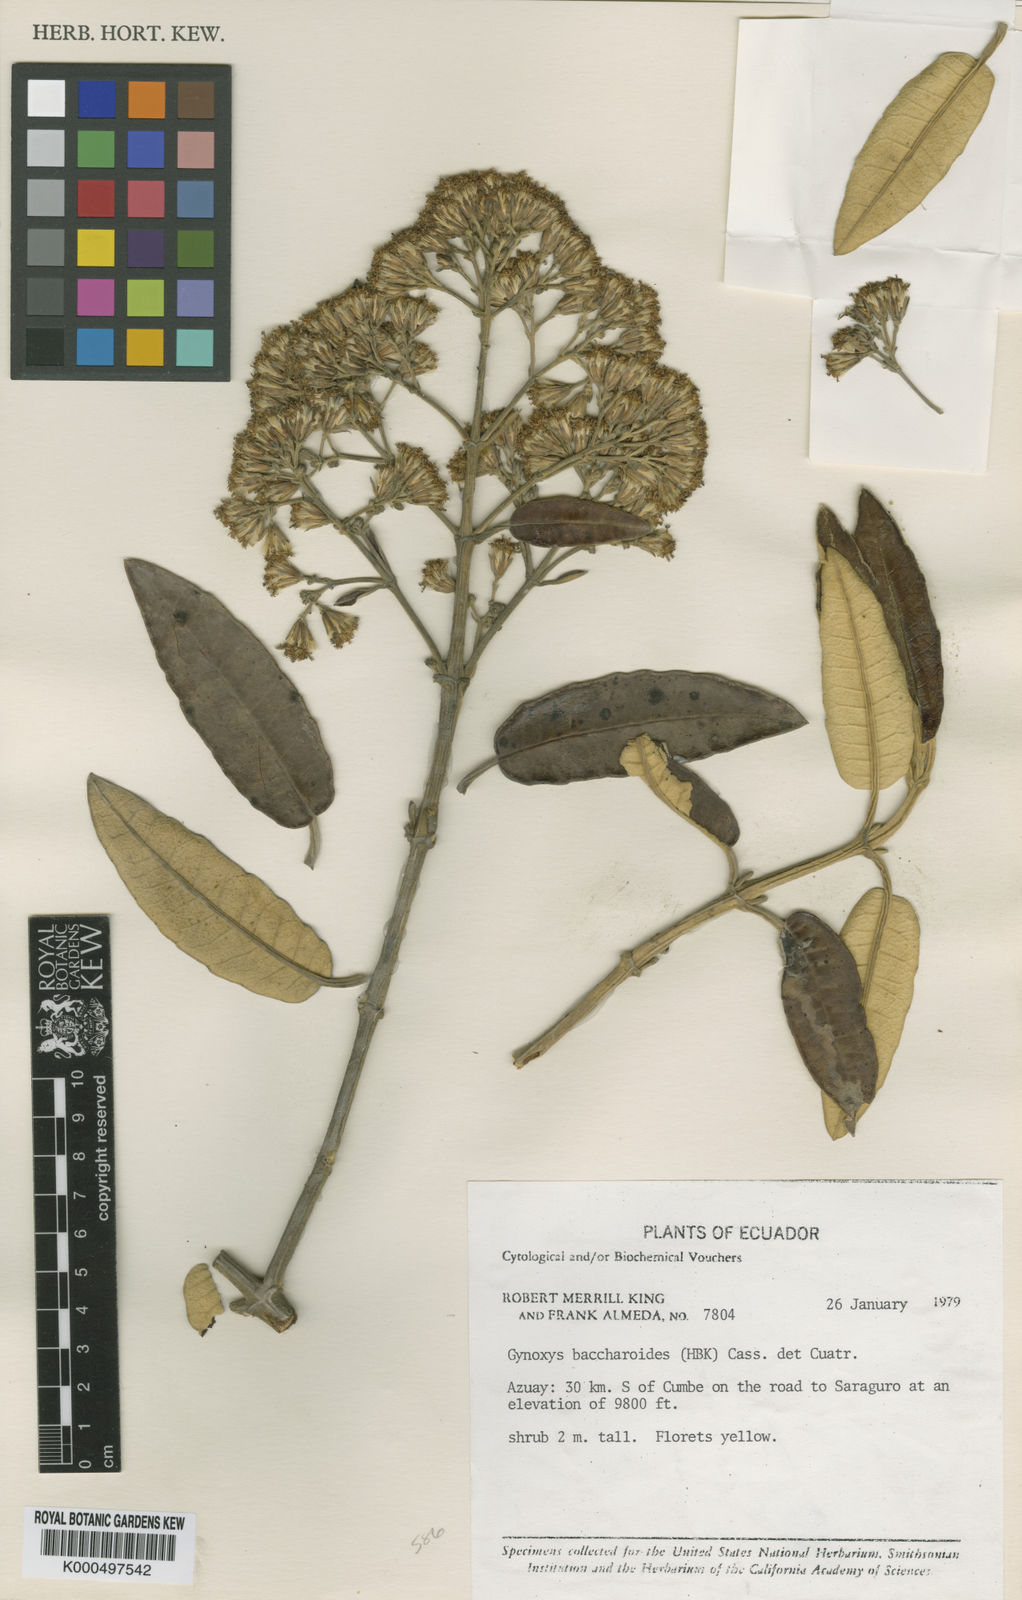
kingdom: Plantae
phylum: Tracheophyta
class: Magnoliopsida
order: Asterales
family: Asteraceae
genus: Gynoxys
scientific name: Gynoxys baccharoides
